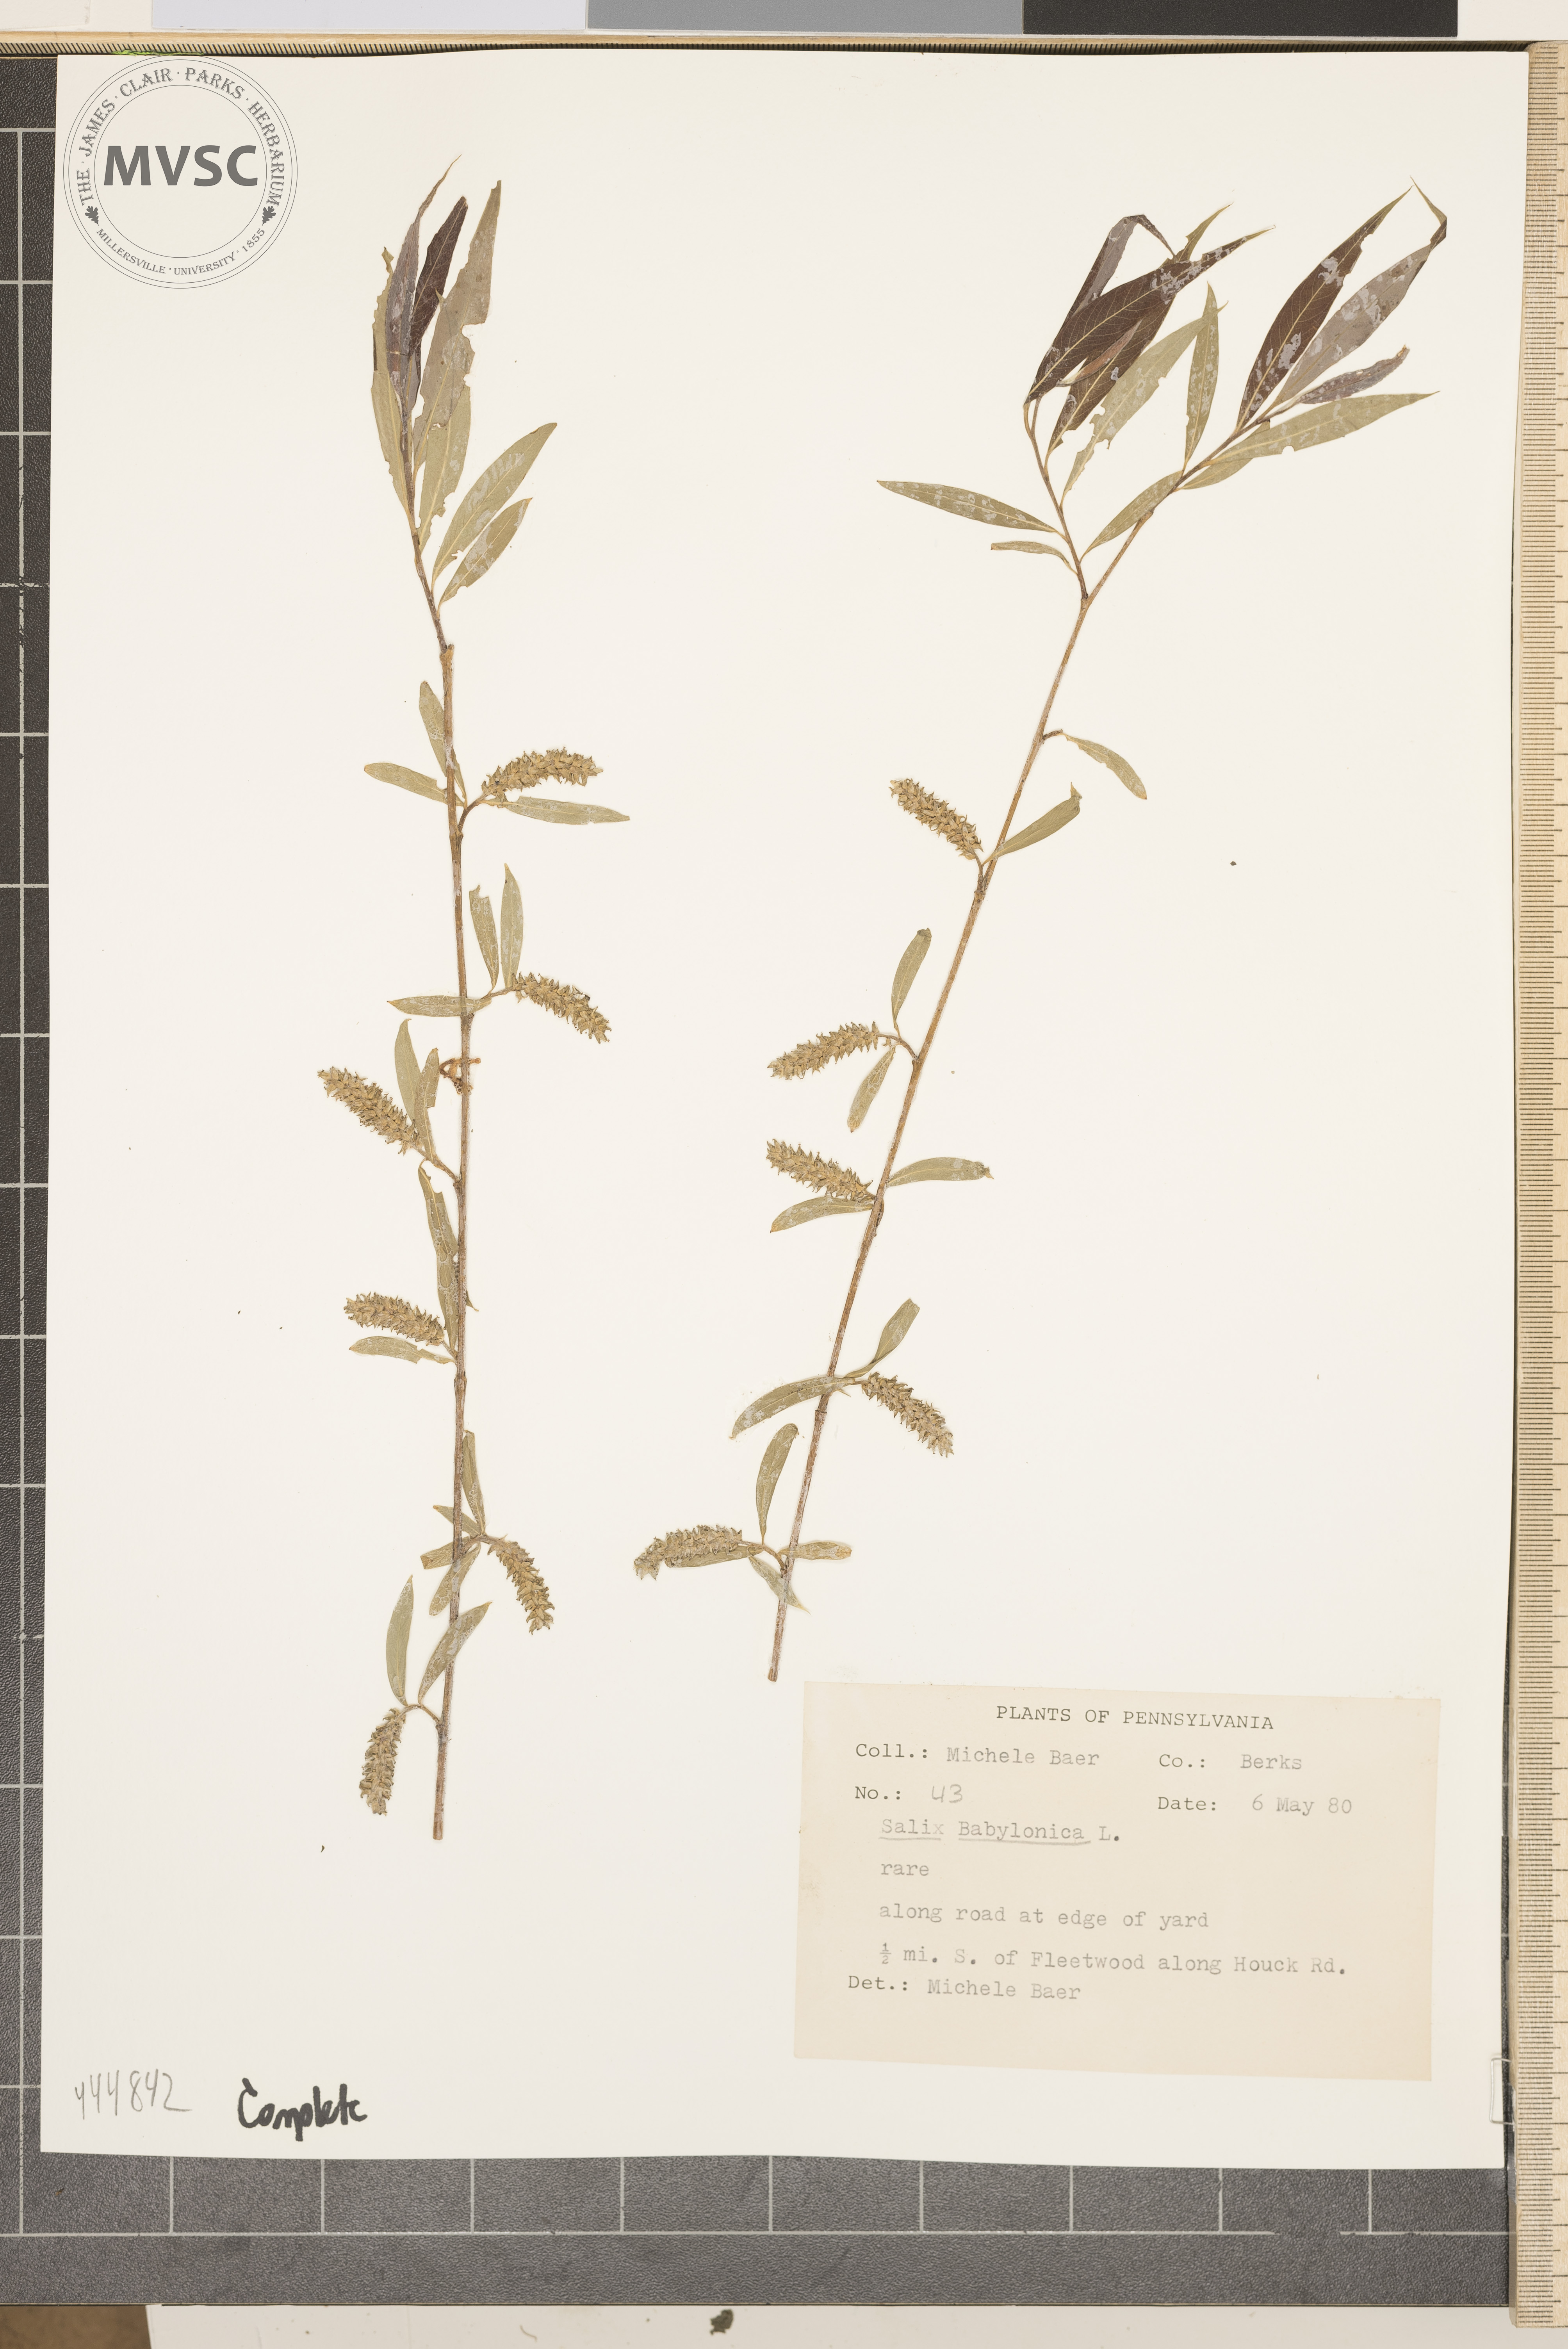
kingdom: Plantae
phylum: Tracheophyta
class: Magnoliopsida
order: Malpighiales
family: Salicaceae
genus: Salix
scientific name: Salix babylonica
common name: Weeping willow
